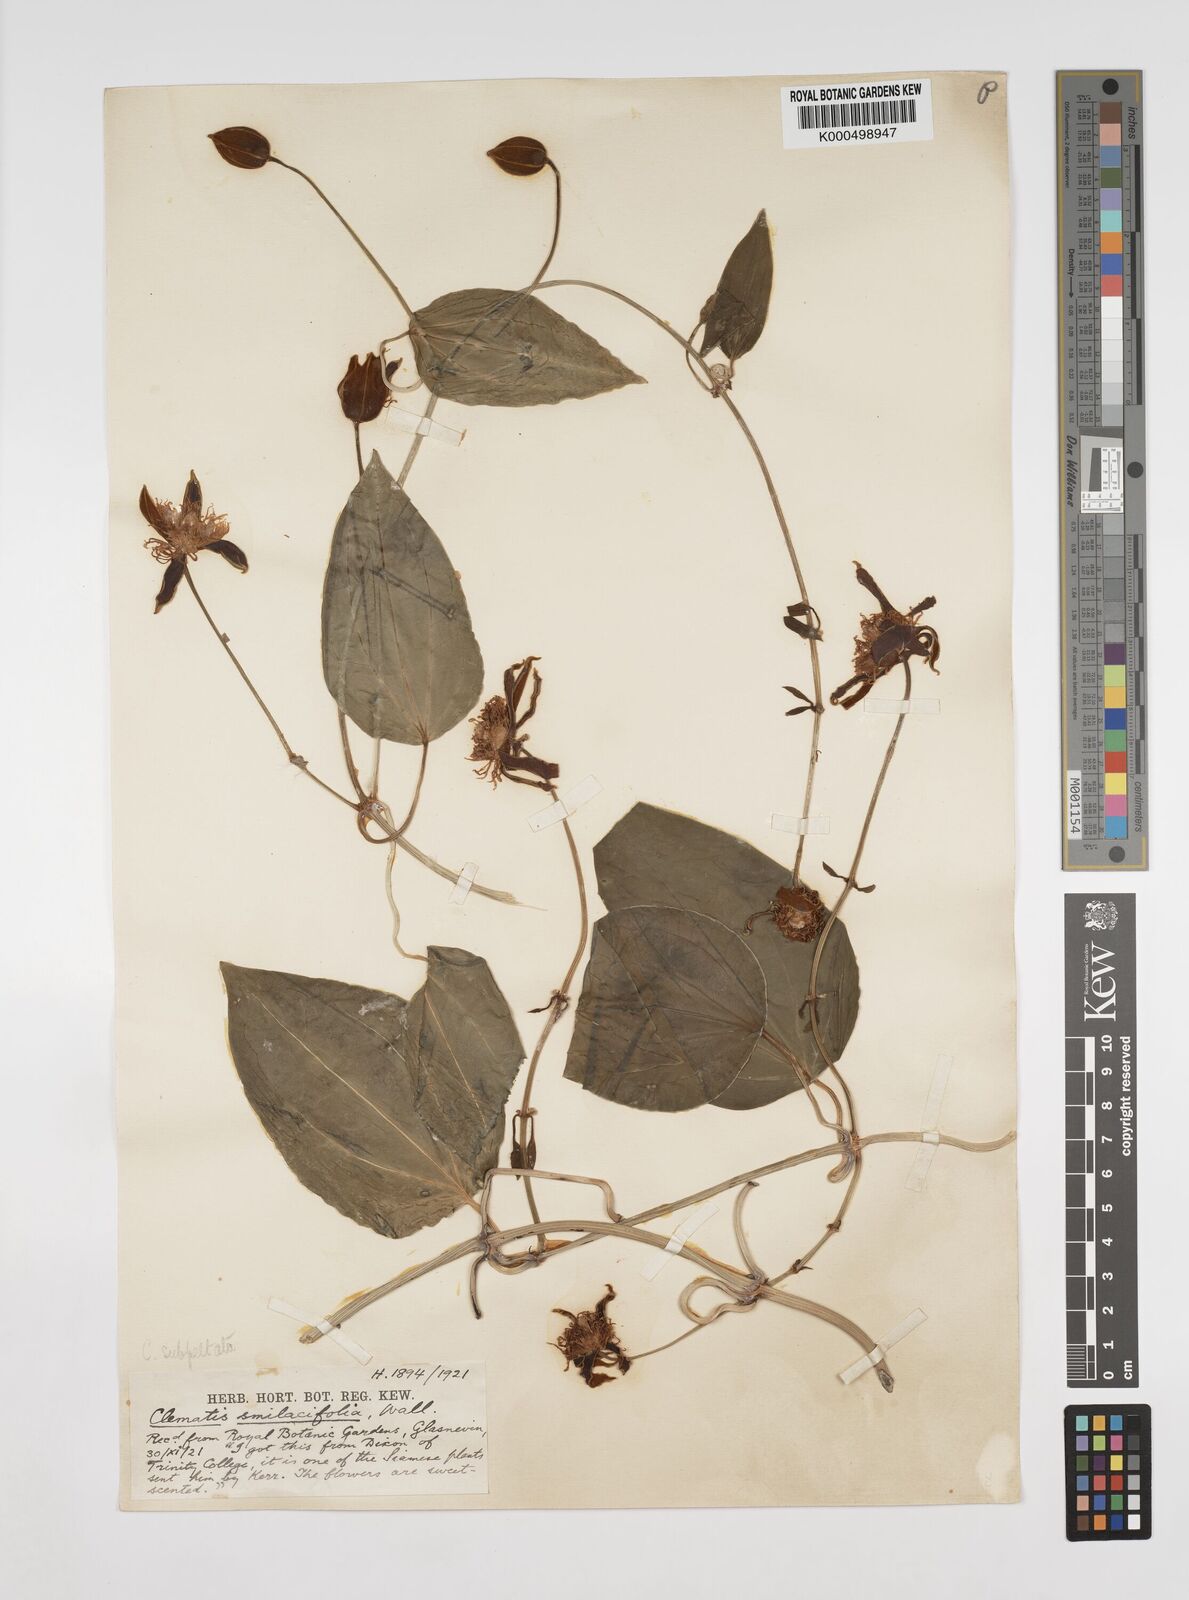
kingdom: Plantae
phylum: Tracheophyta
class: Magnoliopsida
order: Ranunculales
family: Ranunculaceae
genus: Clematis
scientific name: Clematis smilacifolia
